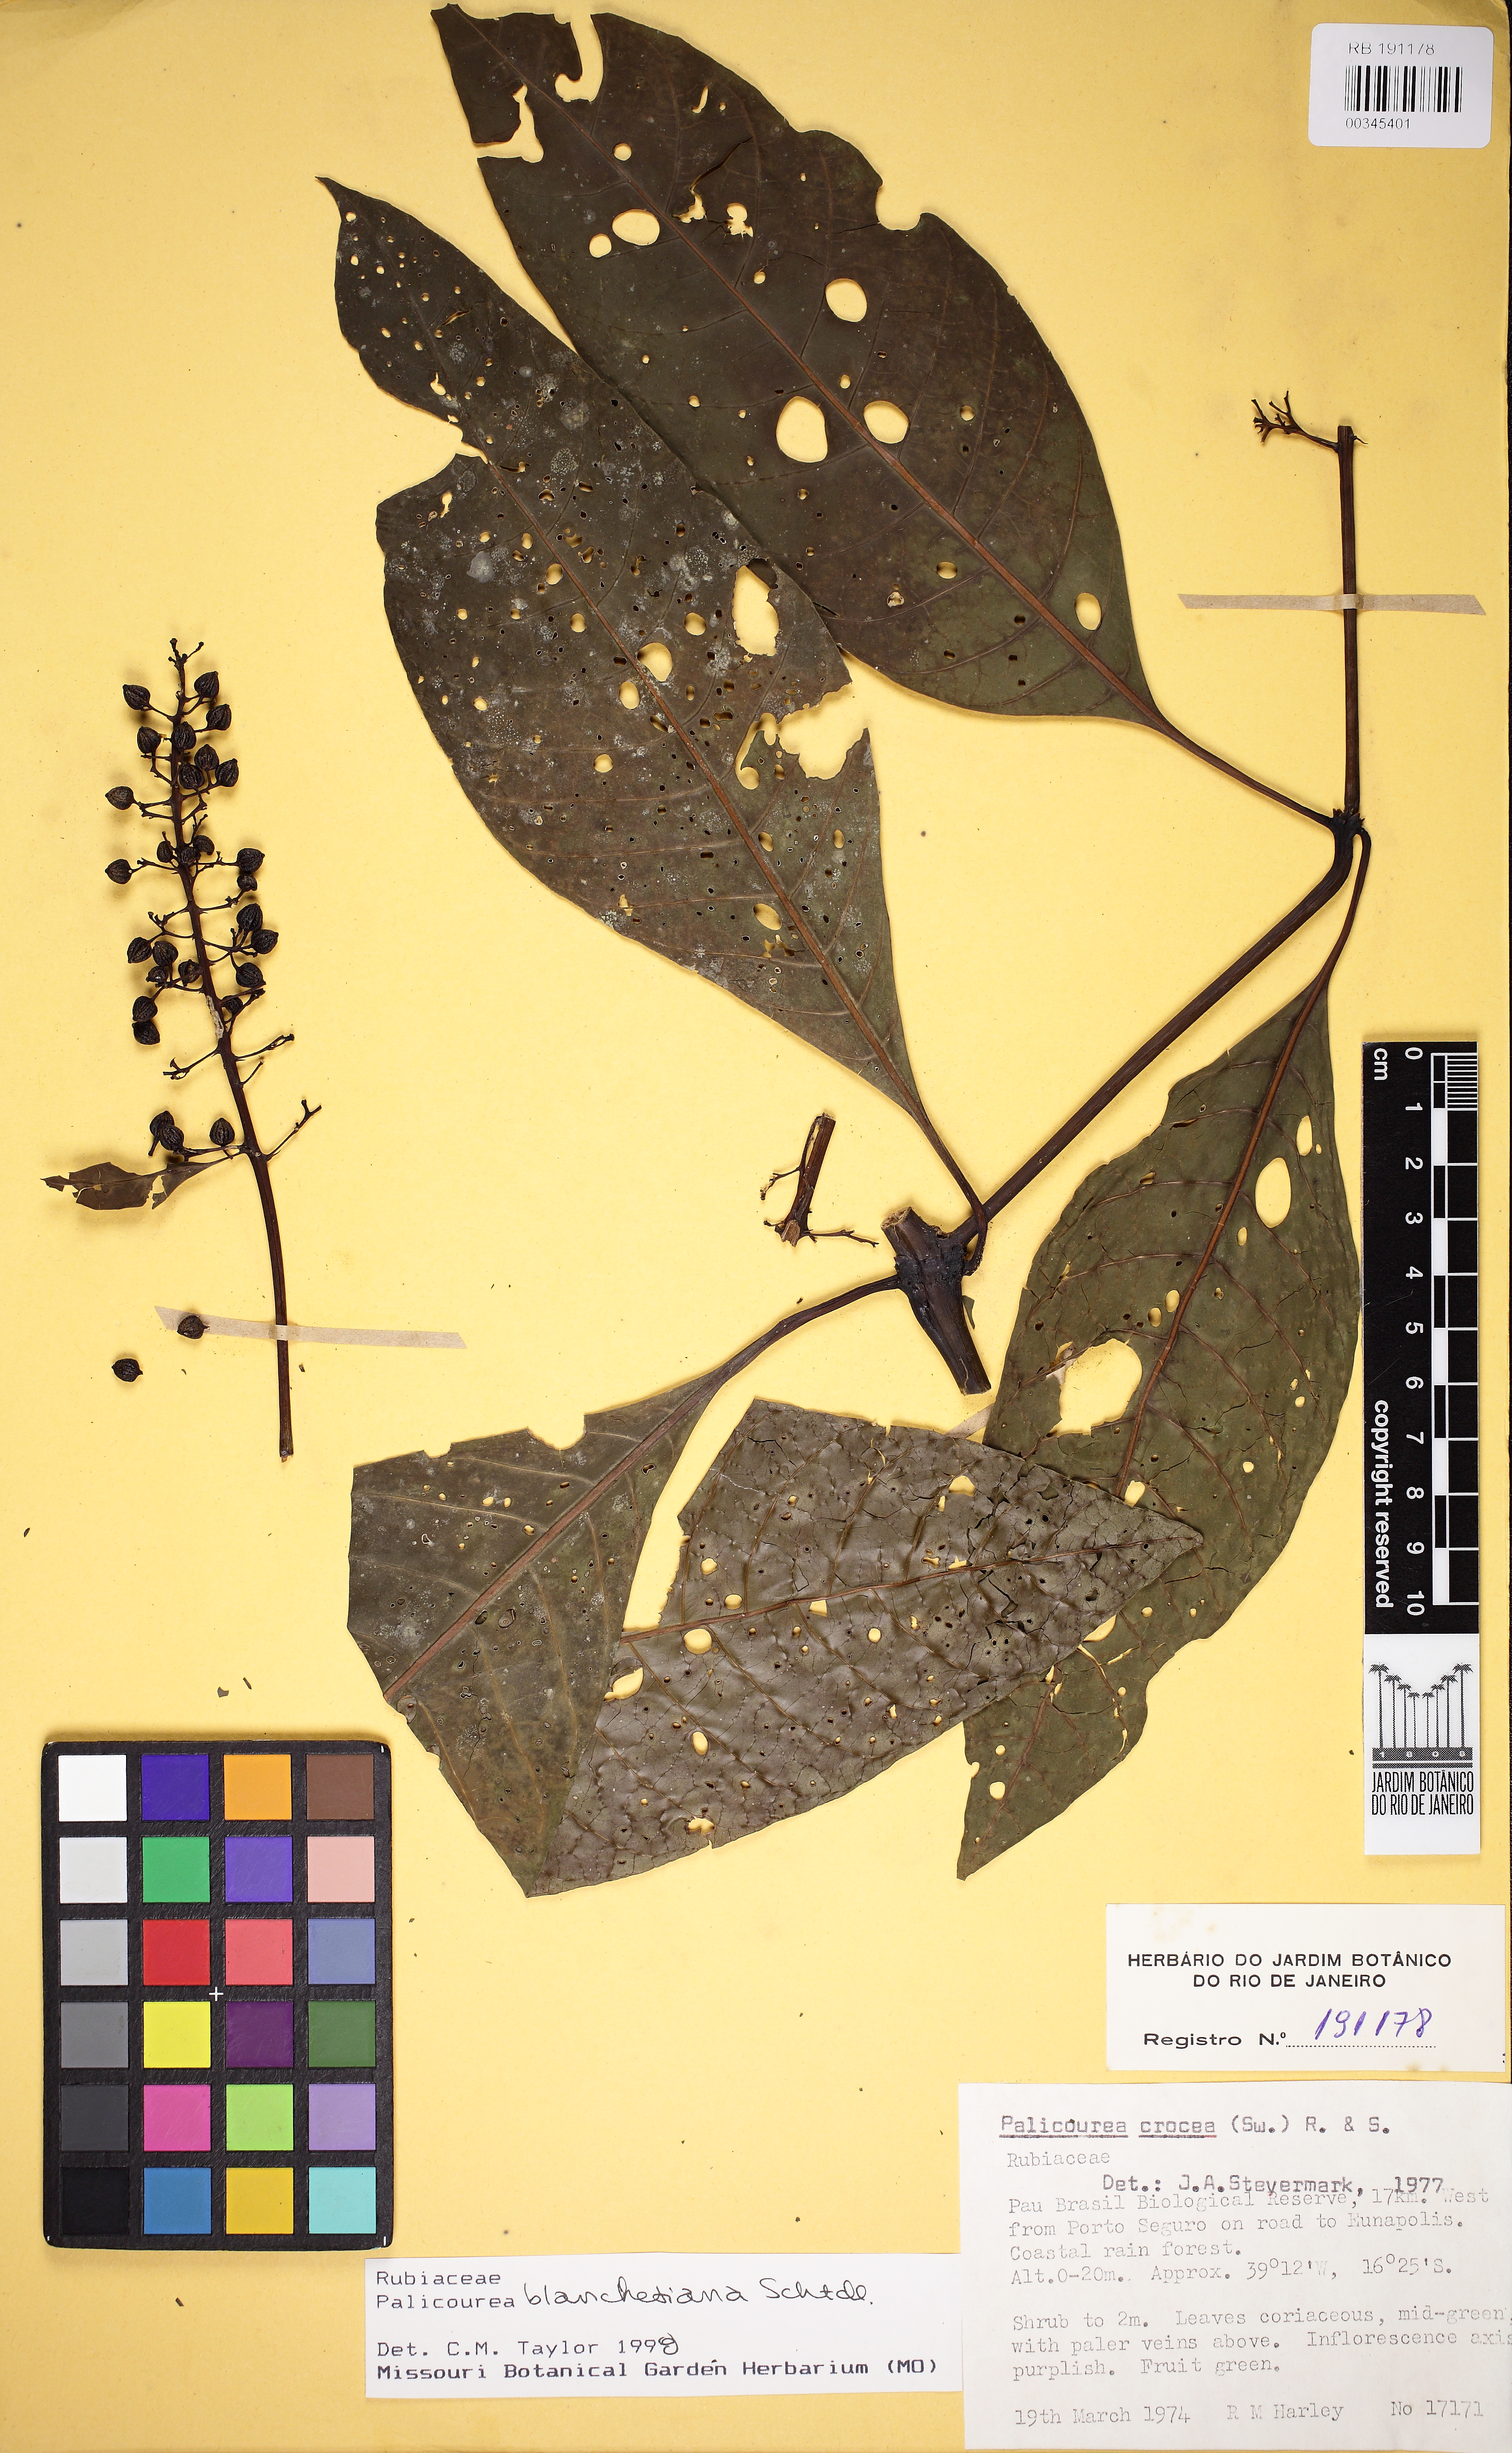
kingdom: Plantae
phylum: Tracheophyta
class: Magnoliopsida
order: Gentianales
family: Rubiaceae
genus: Palicourea
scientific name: Palicourea blanchetiana
